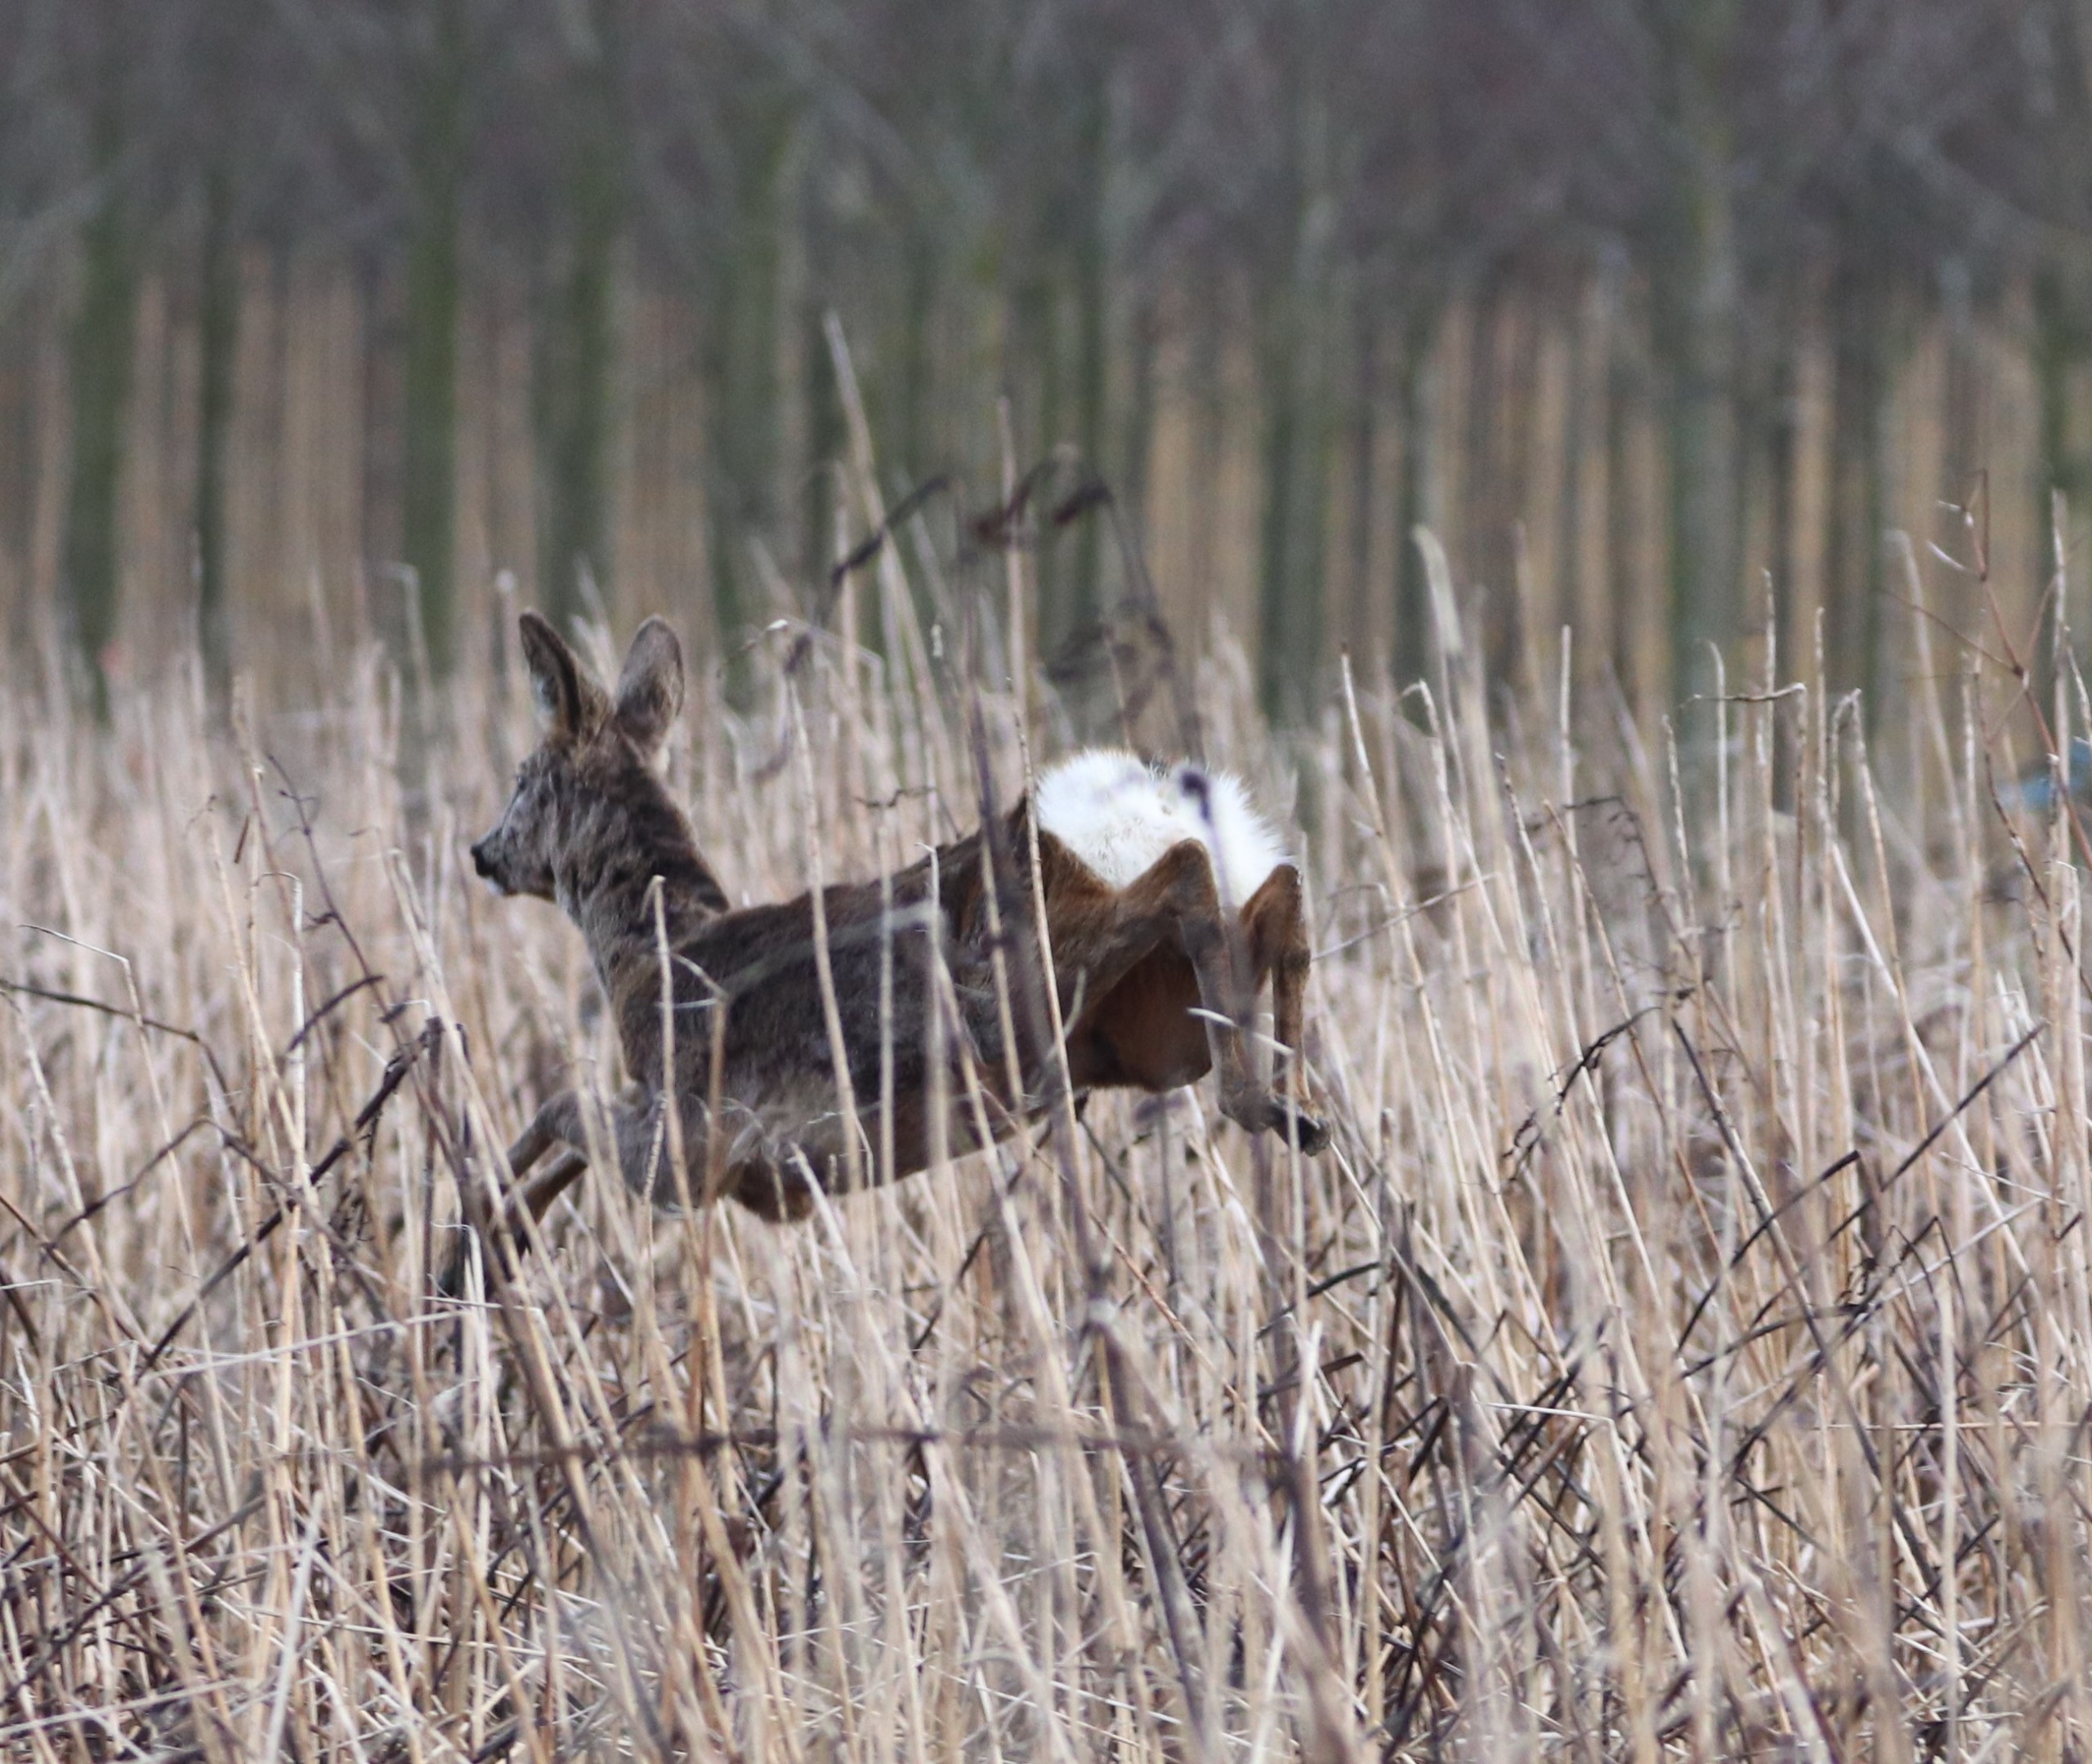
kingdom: Animalia
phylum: Chordata
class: Mammalia
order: Artiodactyla
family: Cervidae
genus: Capreolus
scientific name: Capreolus capreolus
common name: Rådyr
